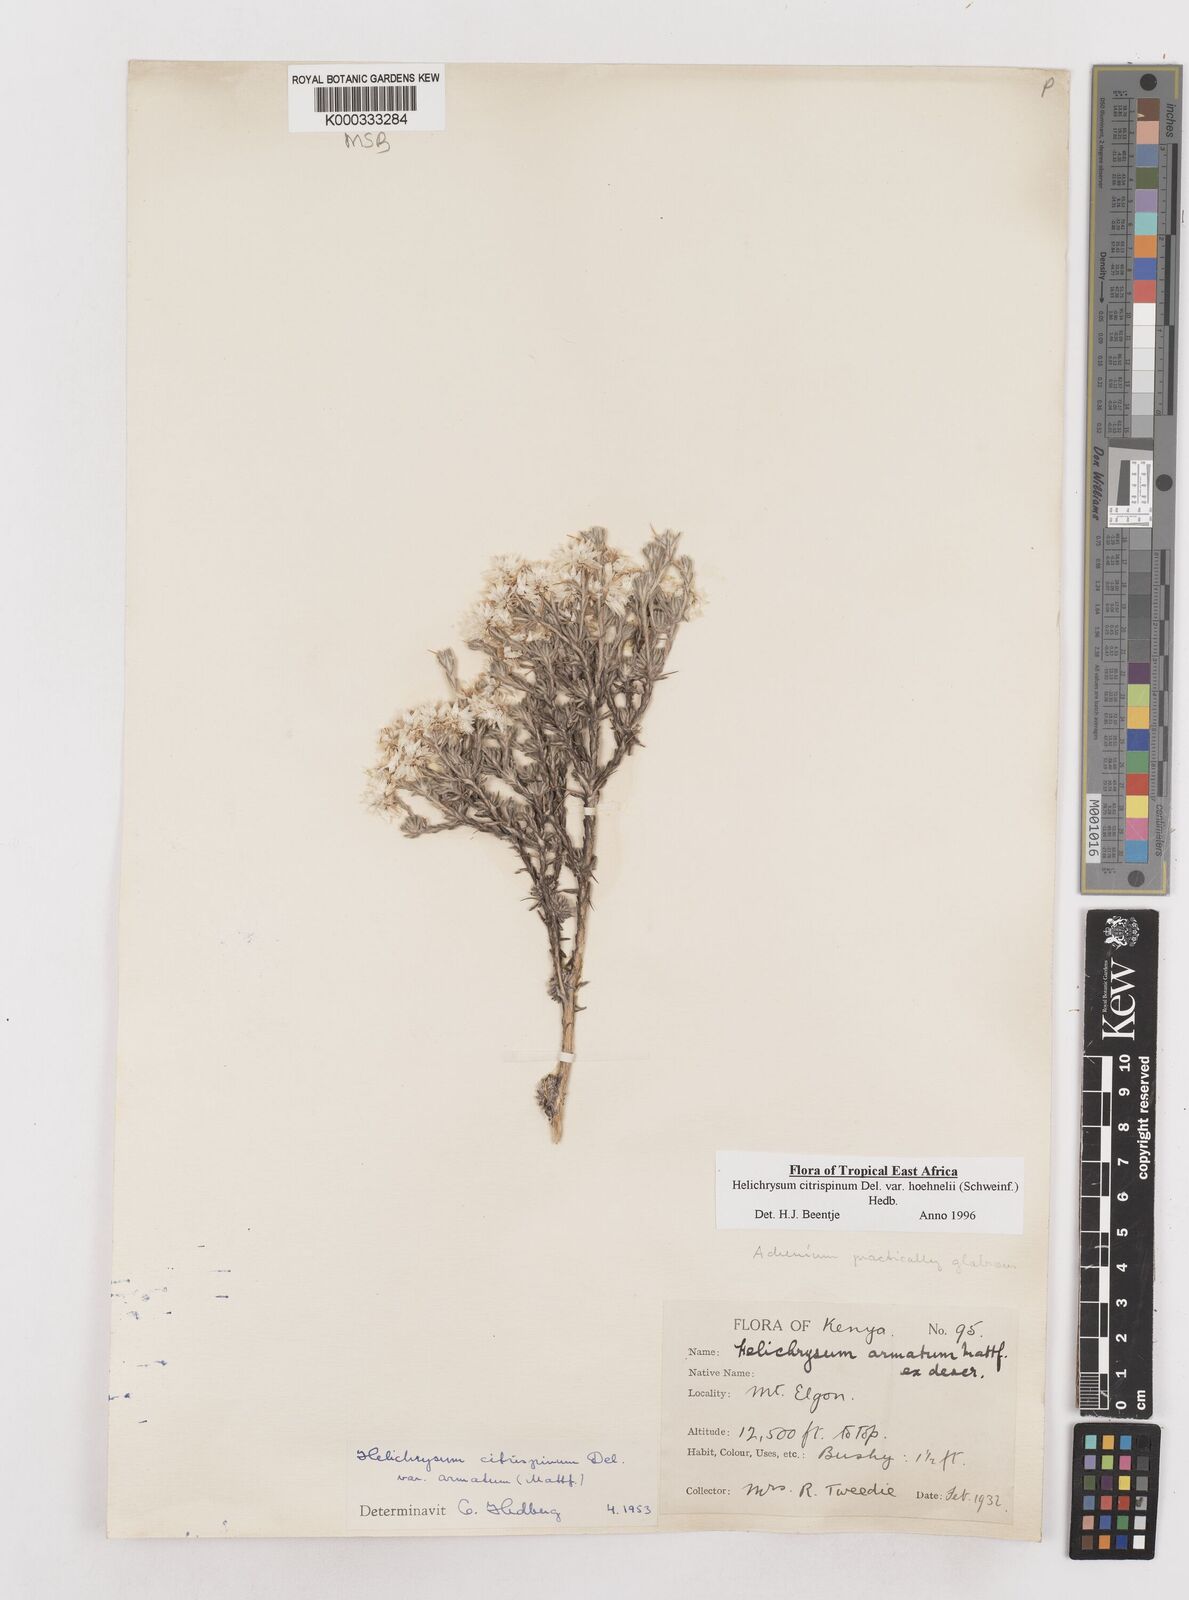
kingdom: Plantae
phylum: Tracheophyta
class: Magnoliopsida
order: Asterales
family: Asteraceae
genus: Helichrysum
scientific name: Helichrysum citrispinum
